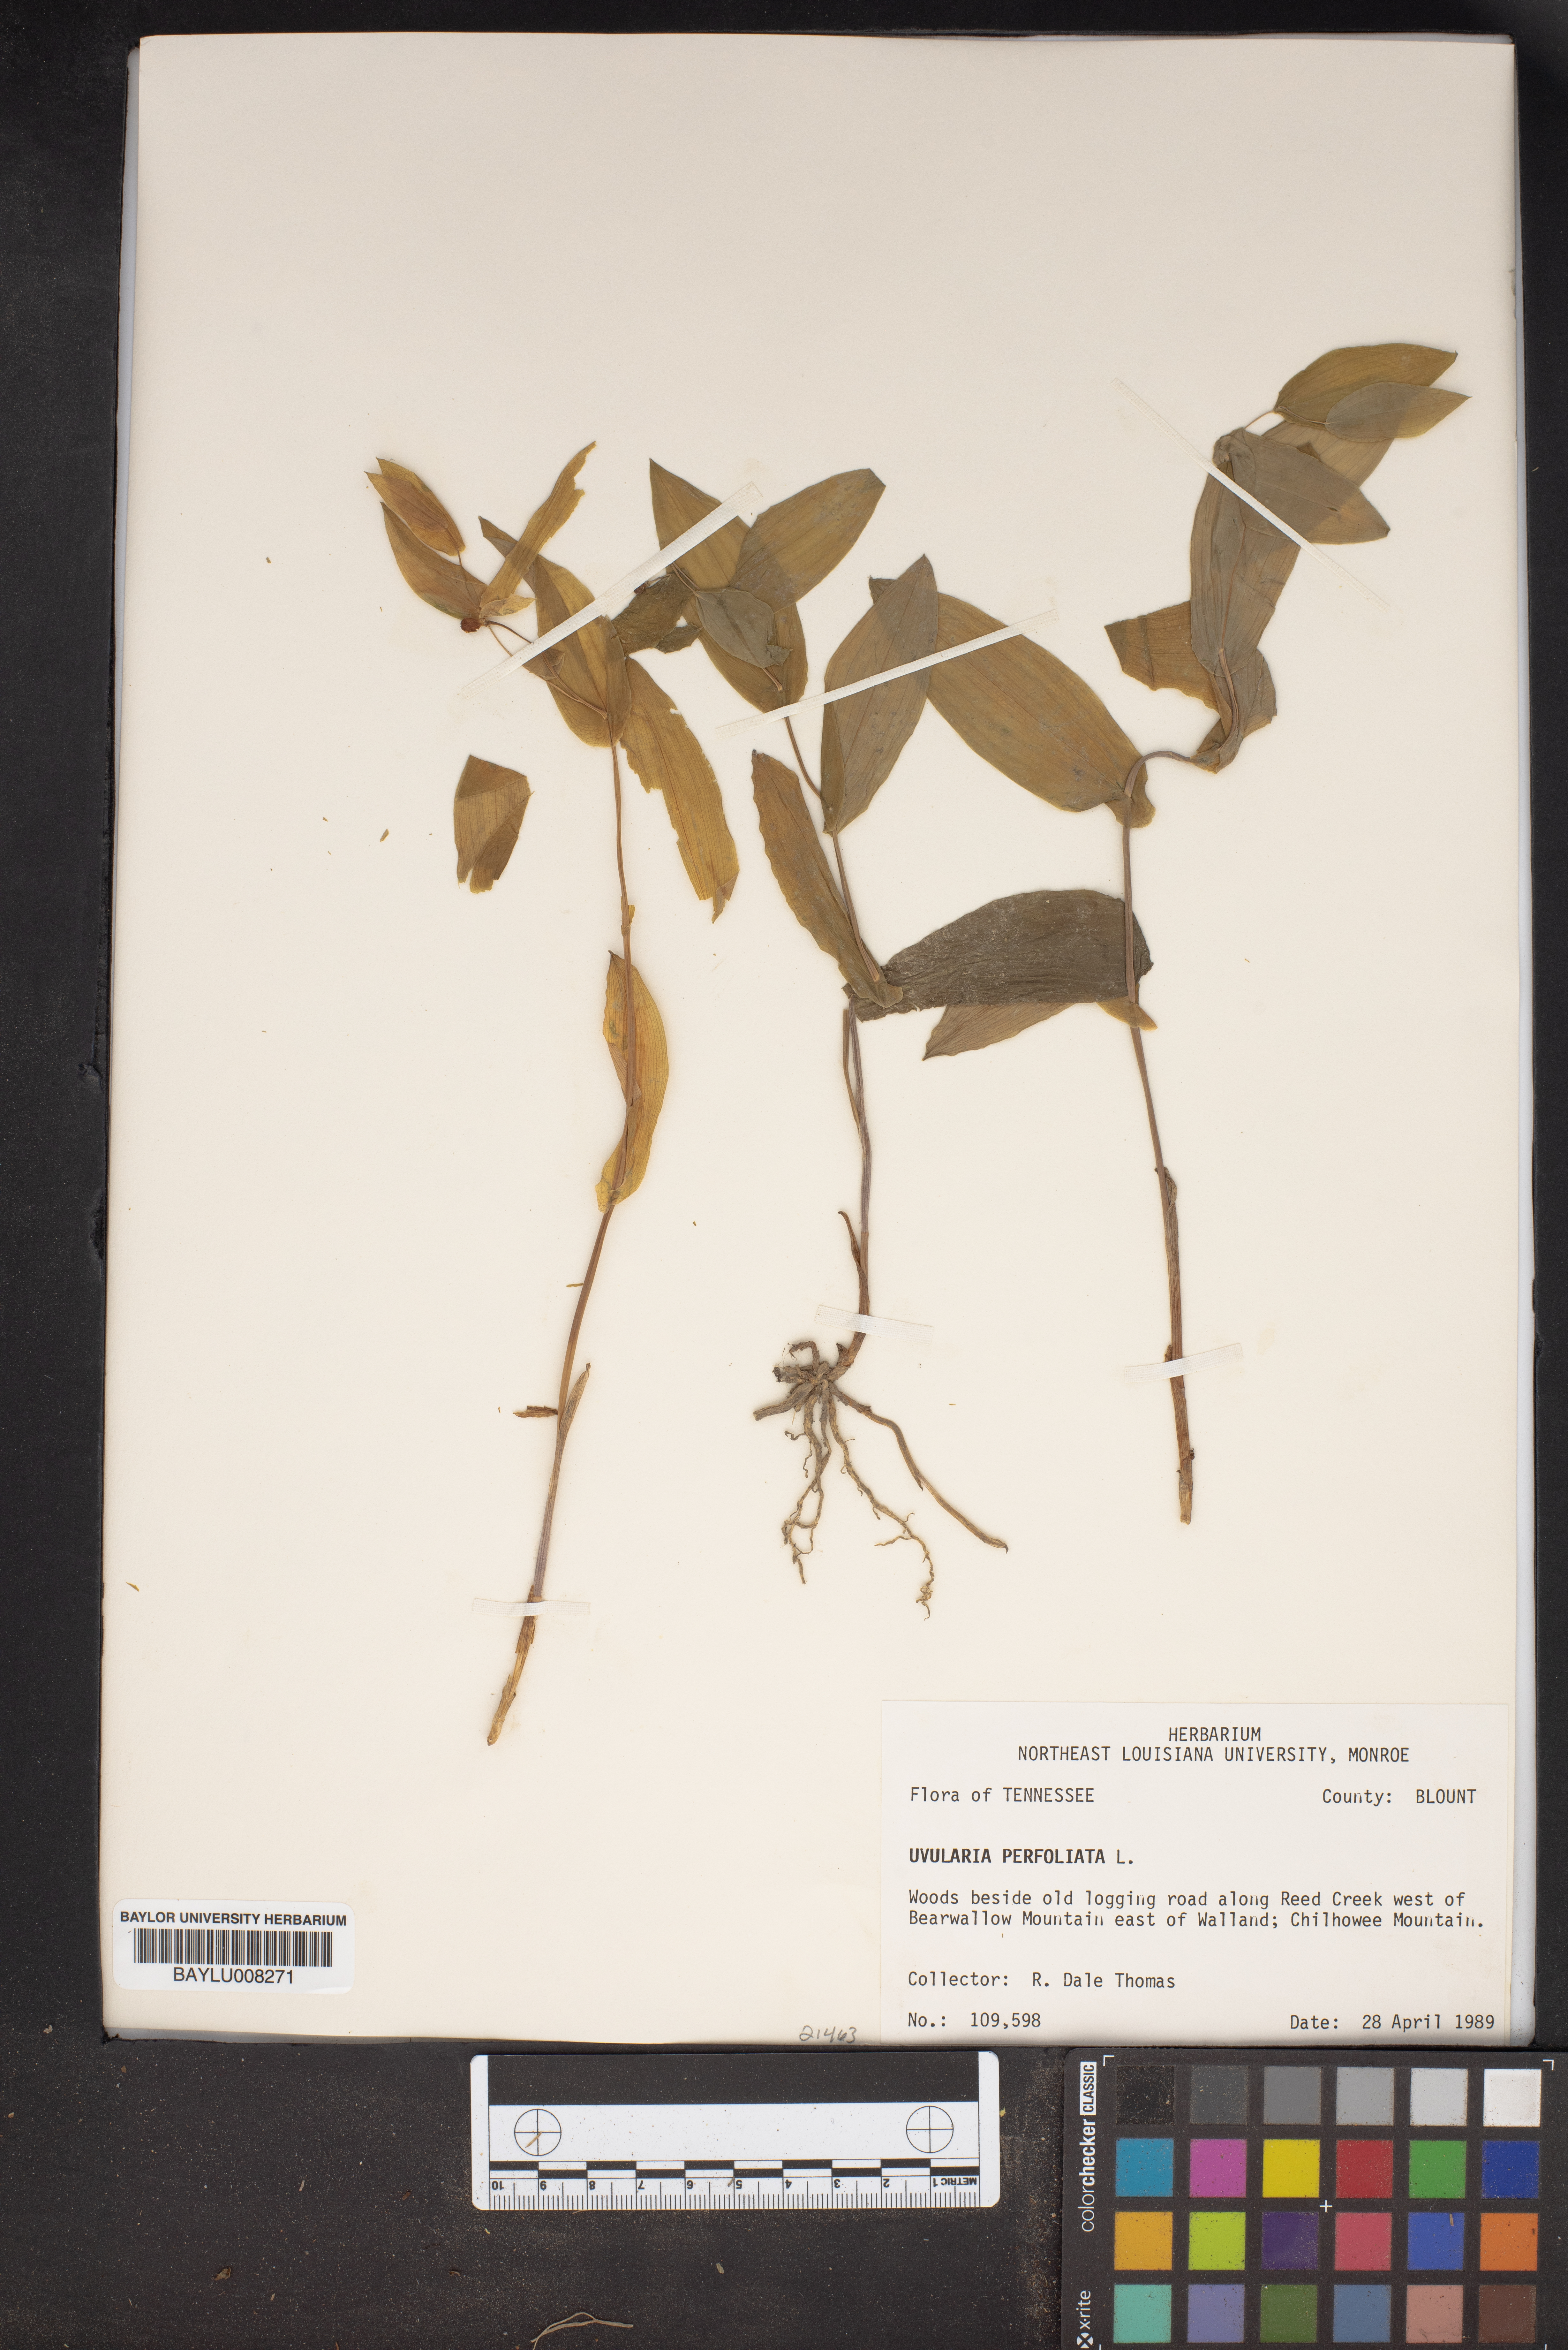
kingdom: Plantae
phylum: Tracheophyta
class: Liliopsida
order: Liliales
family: Colchicaceae
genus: Uvularia
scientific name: Uvularia perfoliata
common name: Perfoliate bellwort
